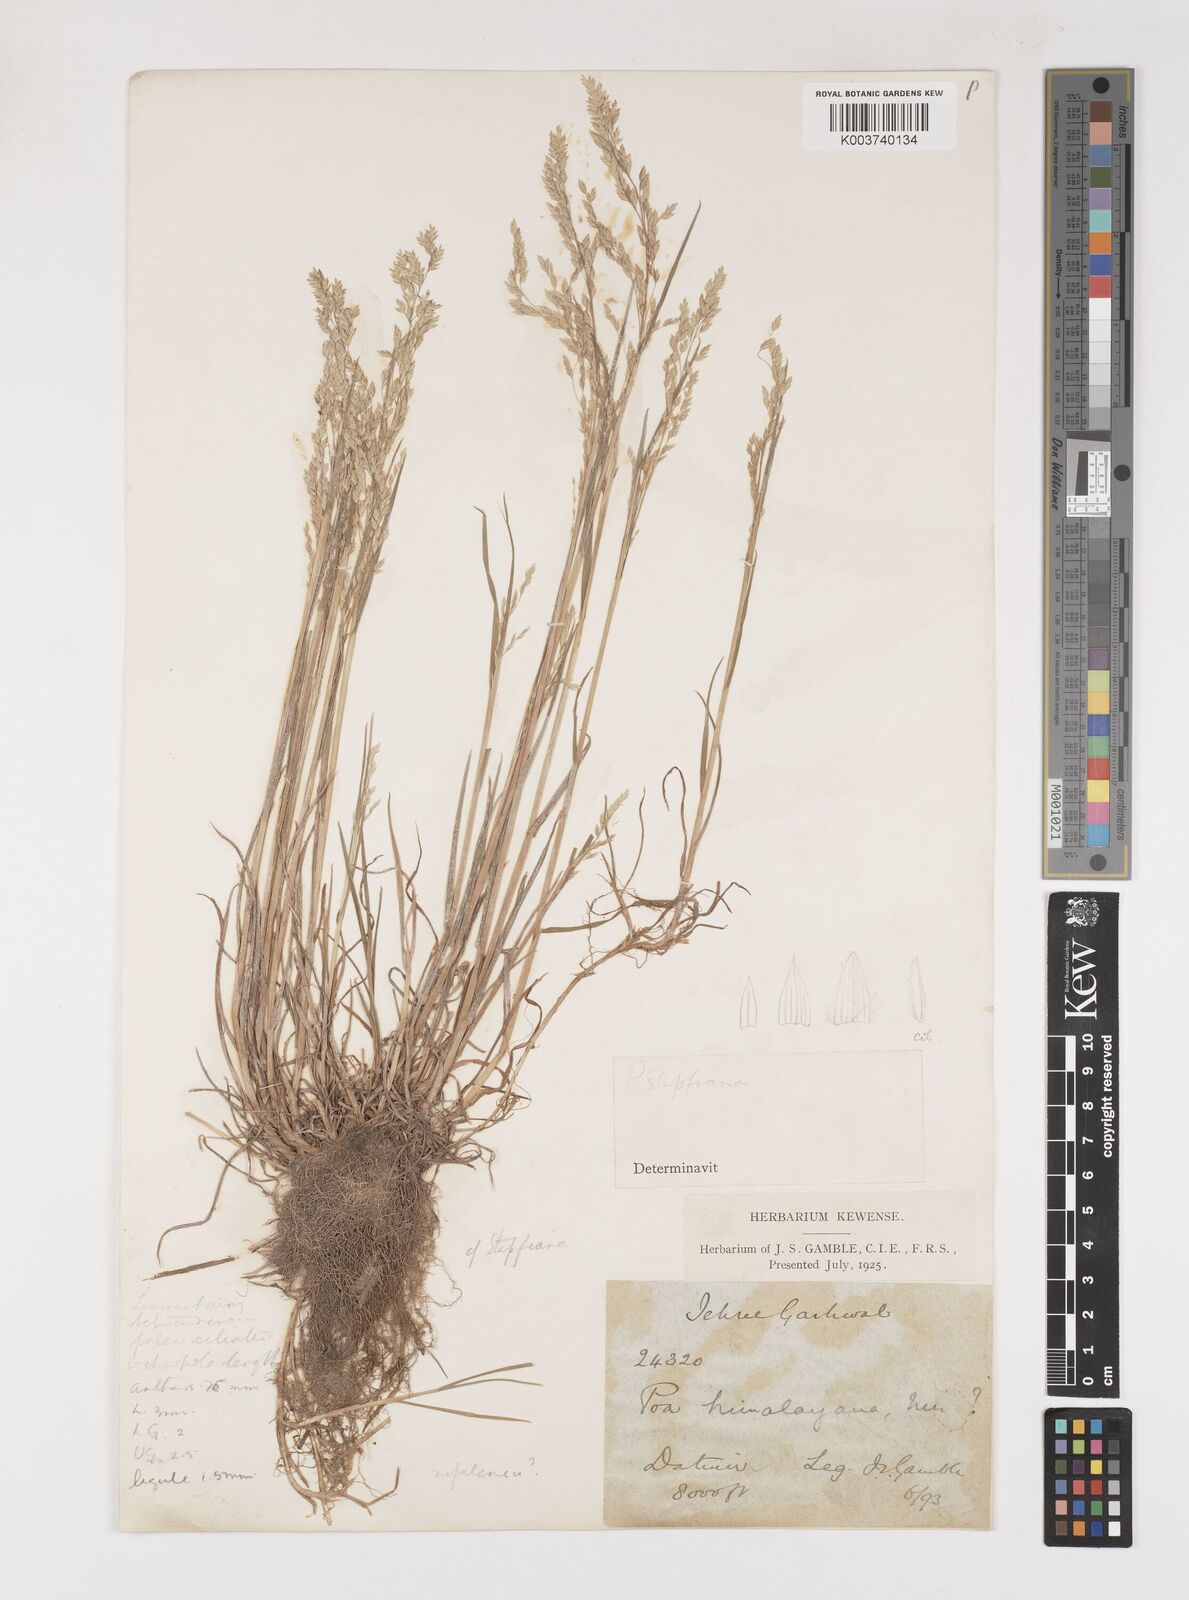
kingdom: Plantae
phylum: Tracheophyta
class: Liliopsida
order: Poales
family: Poaceae
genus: Poa
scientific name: Poa nepalensis
